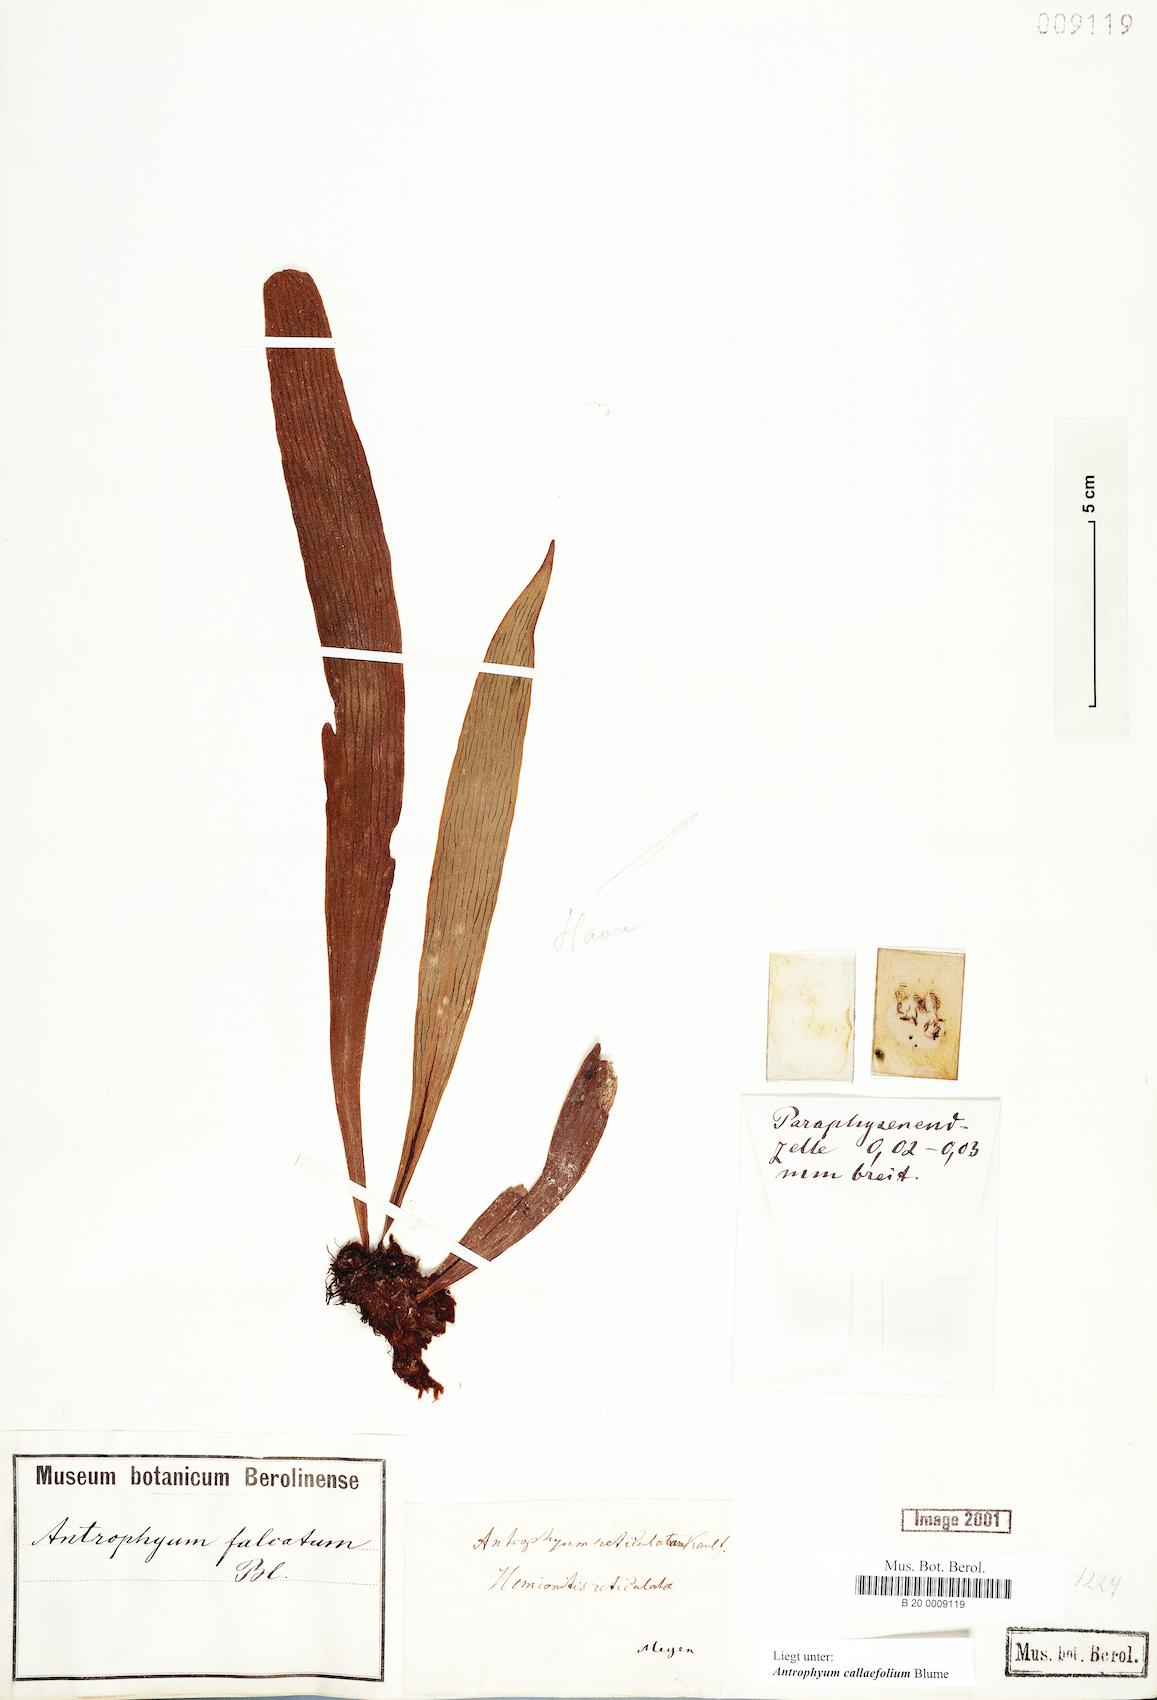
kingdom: Plantae
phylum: Tracheophyta
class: Polypodiopsida
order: Polypodiales
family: Pteridaceae
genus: Antrophyum
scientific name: Antrophyum callifolium
